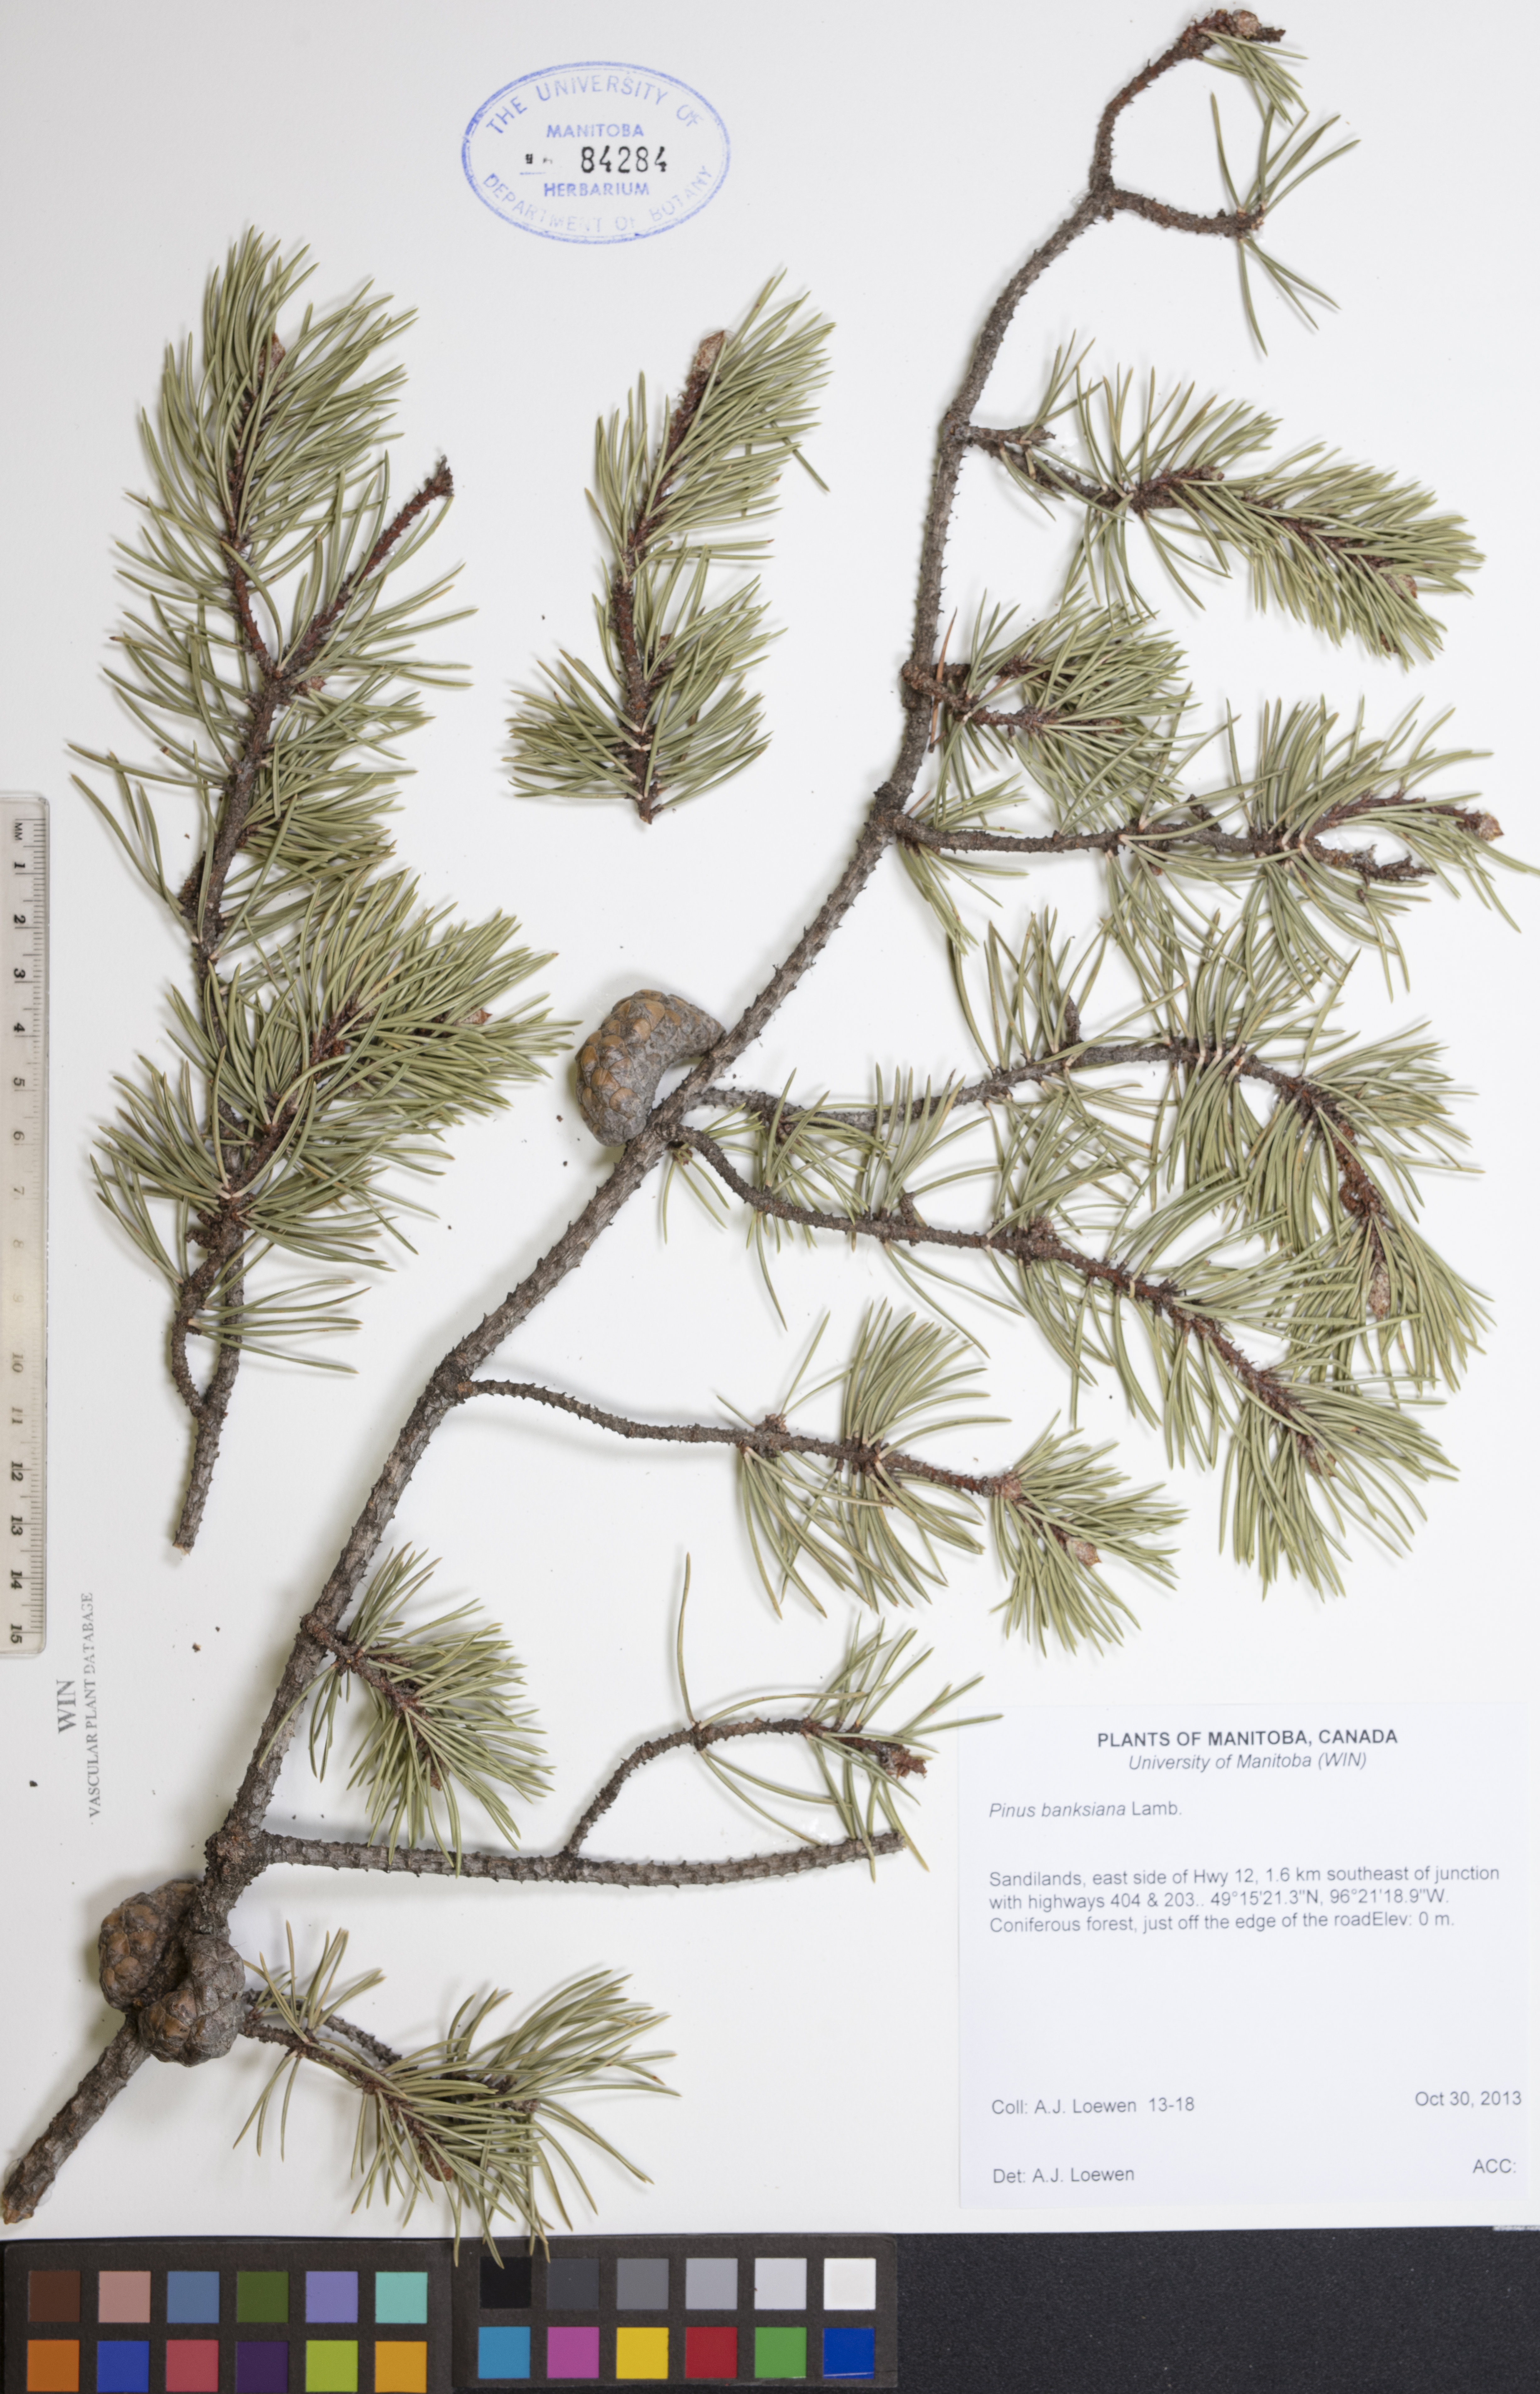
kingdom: Plantae
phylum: Tracheophyta
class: Pinopsida
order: Pinales
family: Pinaceae
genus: Pinus
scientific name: Pinus banksiana
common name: Jack pine
